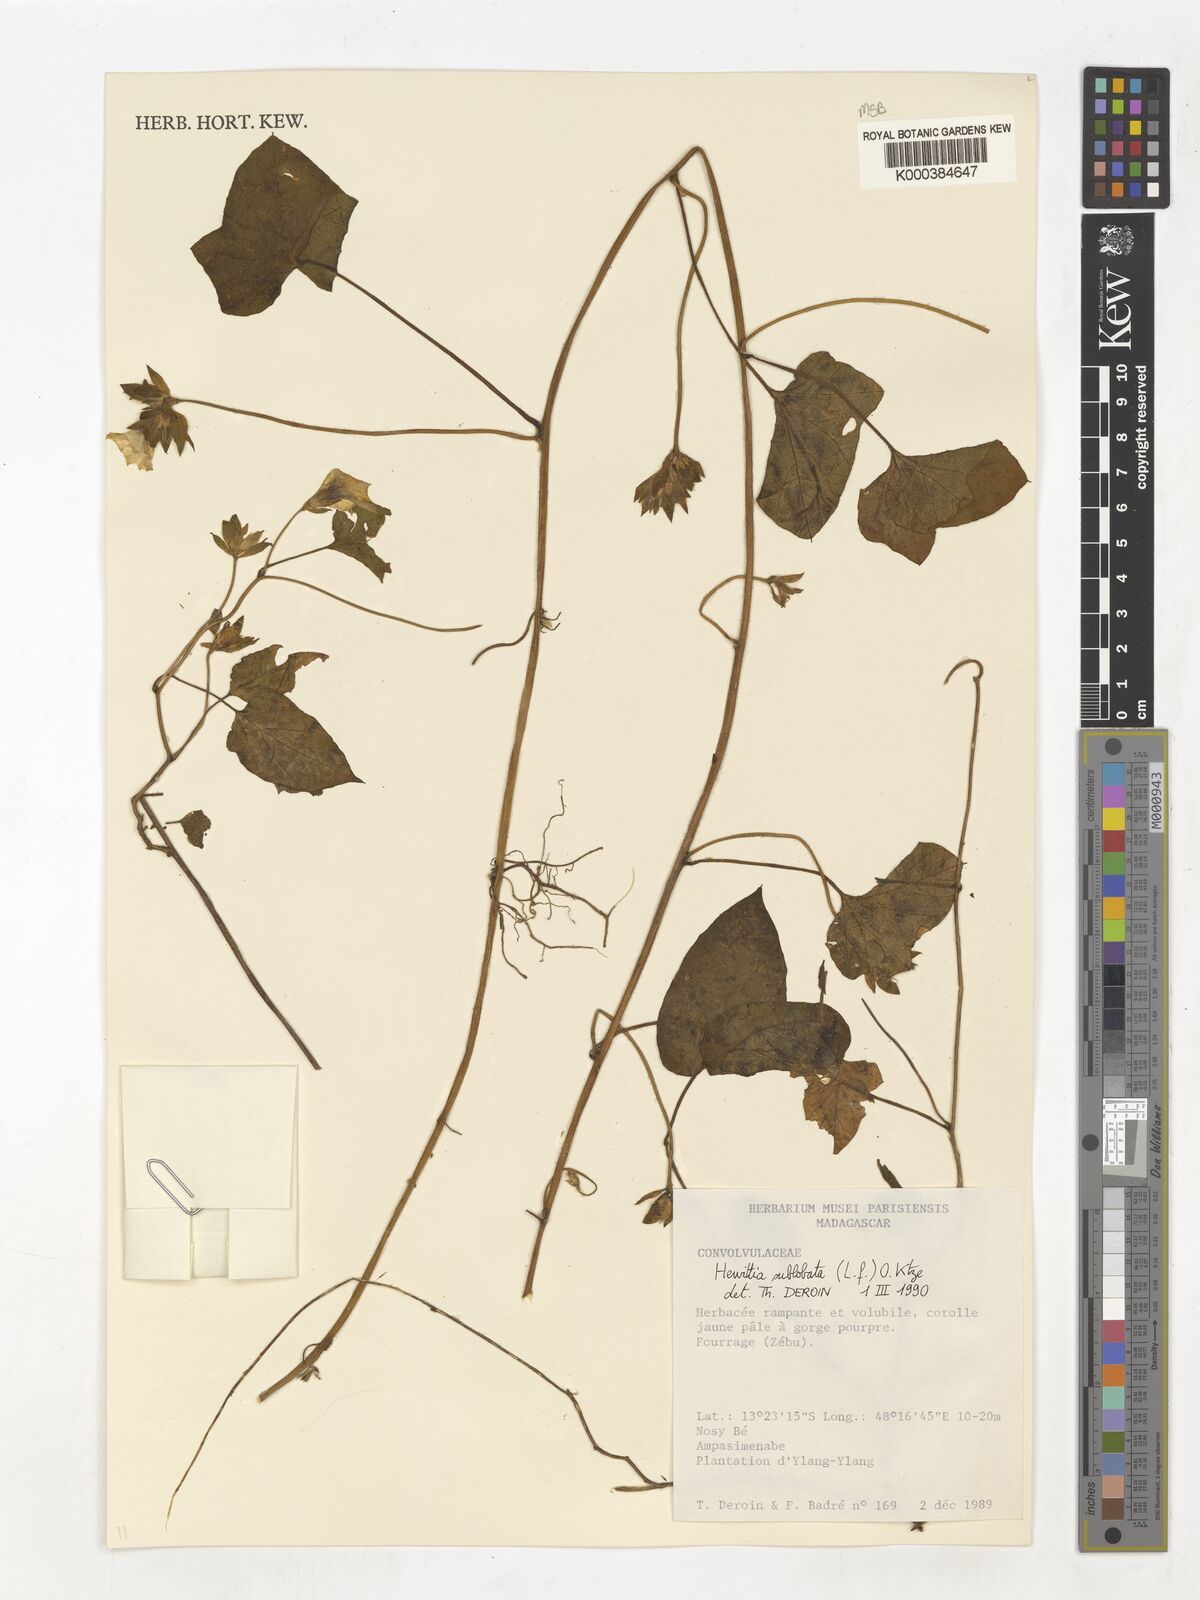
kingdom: Plantae
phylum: Tracheophyta
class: Magnoliopsida
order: Solanales
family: Convolvulaceae
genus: Hewittia
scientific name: Hewittia
